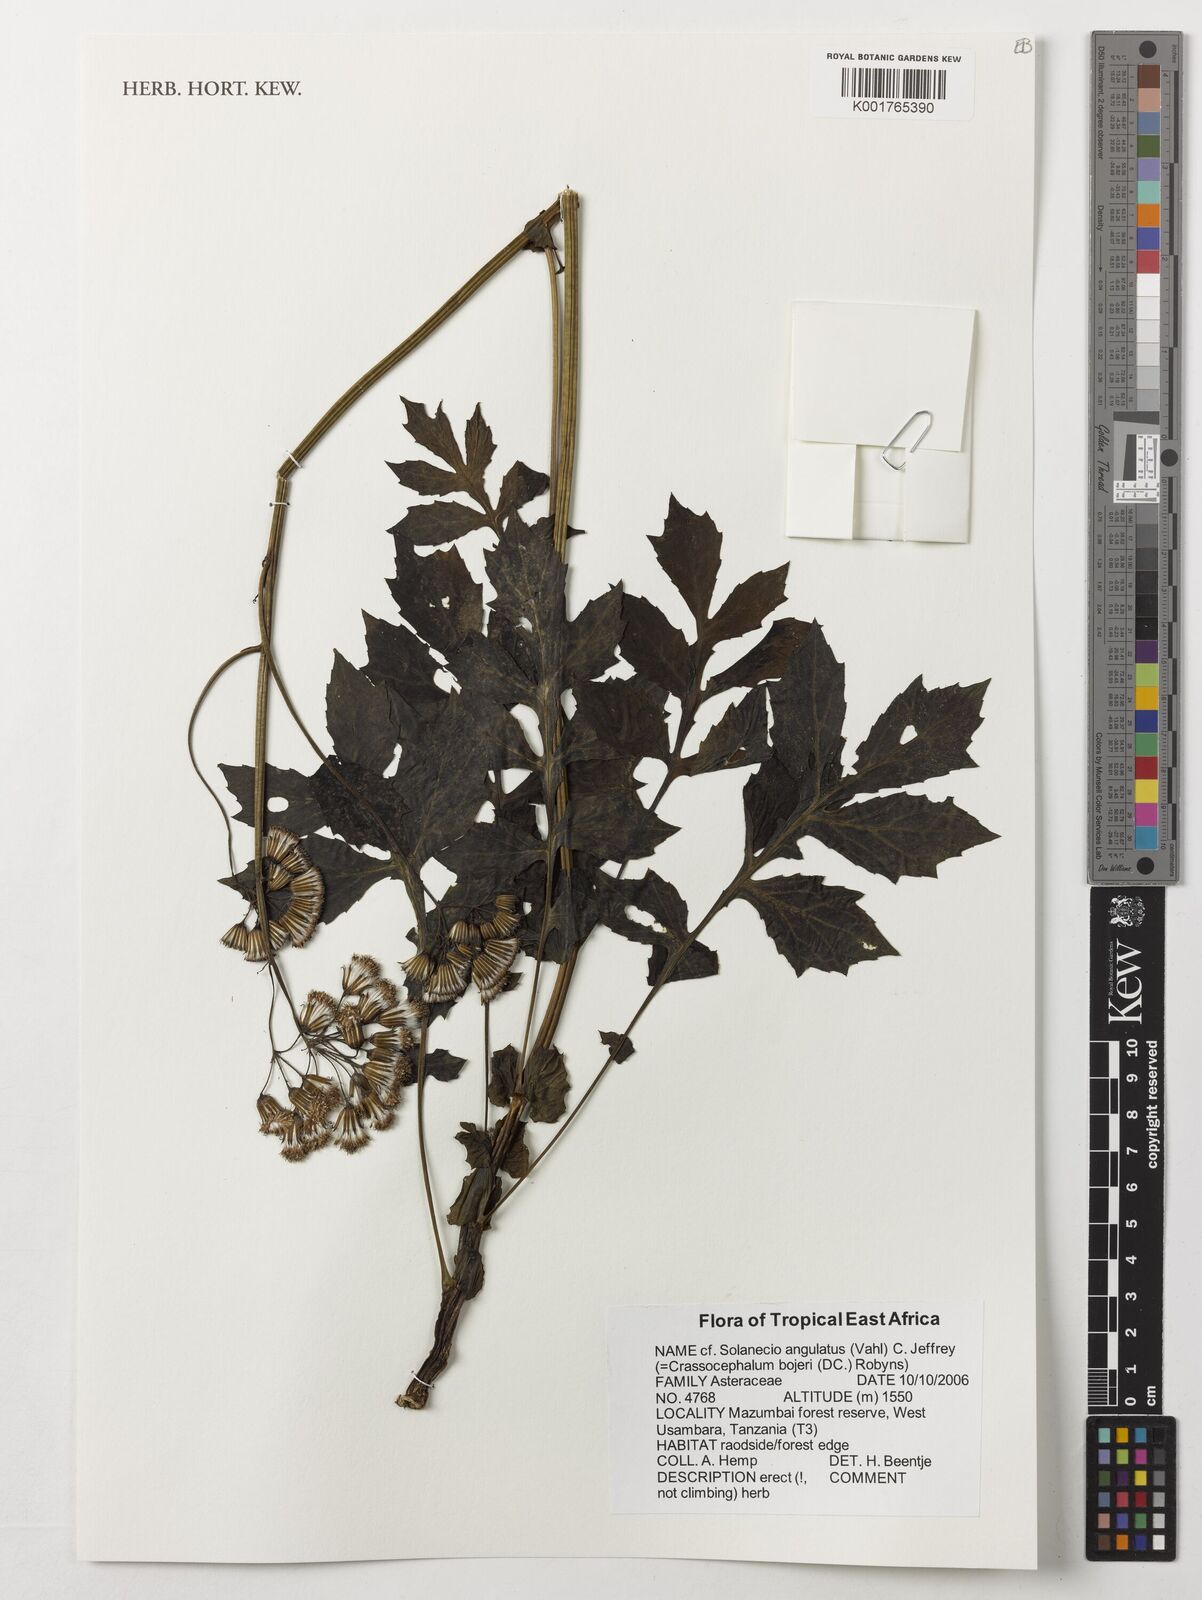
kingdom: Plantae
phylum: Tracheophyta
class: Magnoliopsida
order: Asterales
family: Asteraceae
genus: Solanecio
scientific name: Solanecio angulatus
